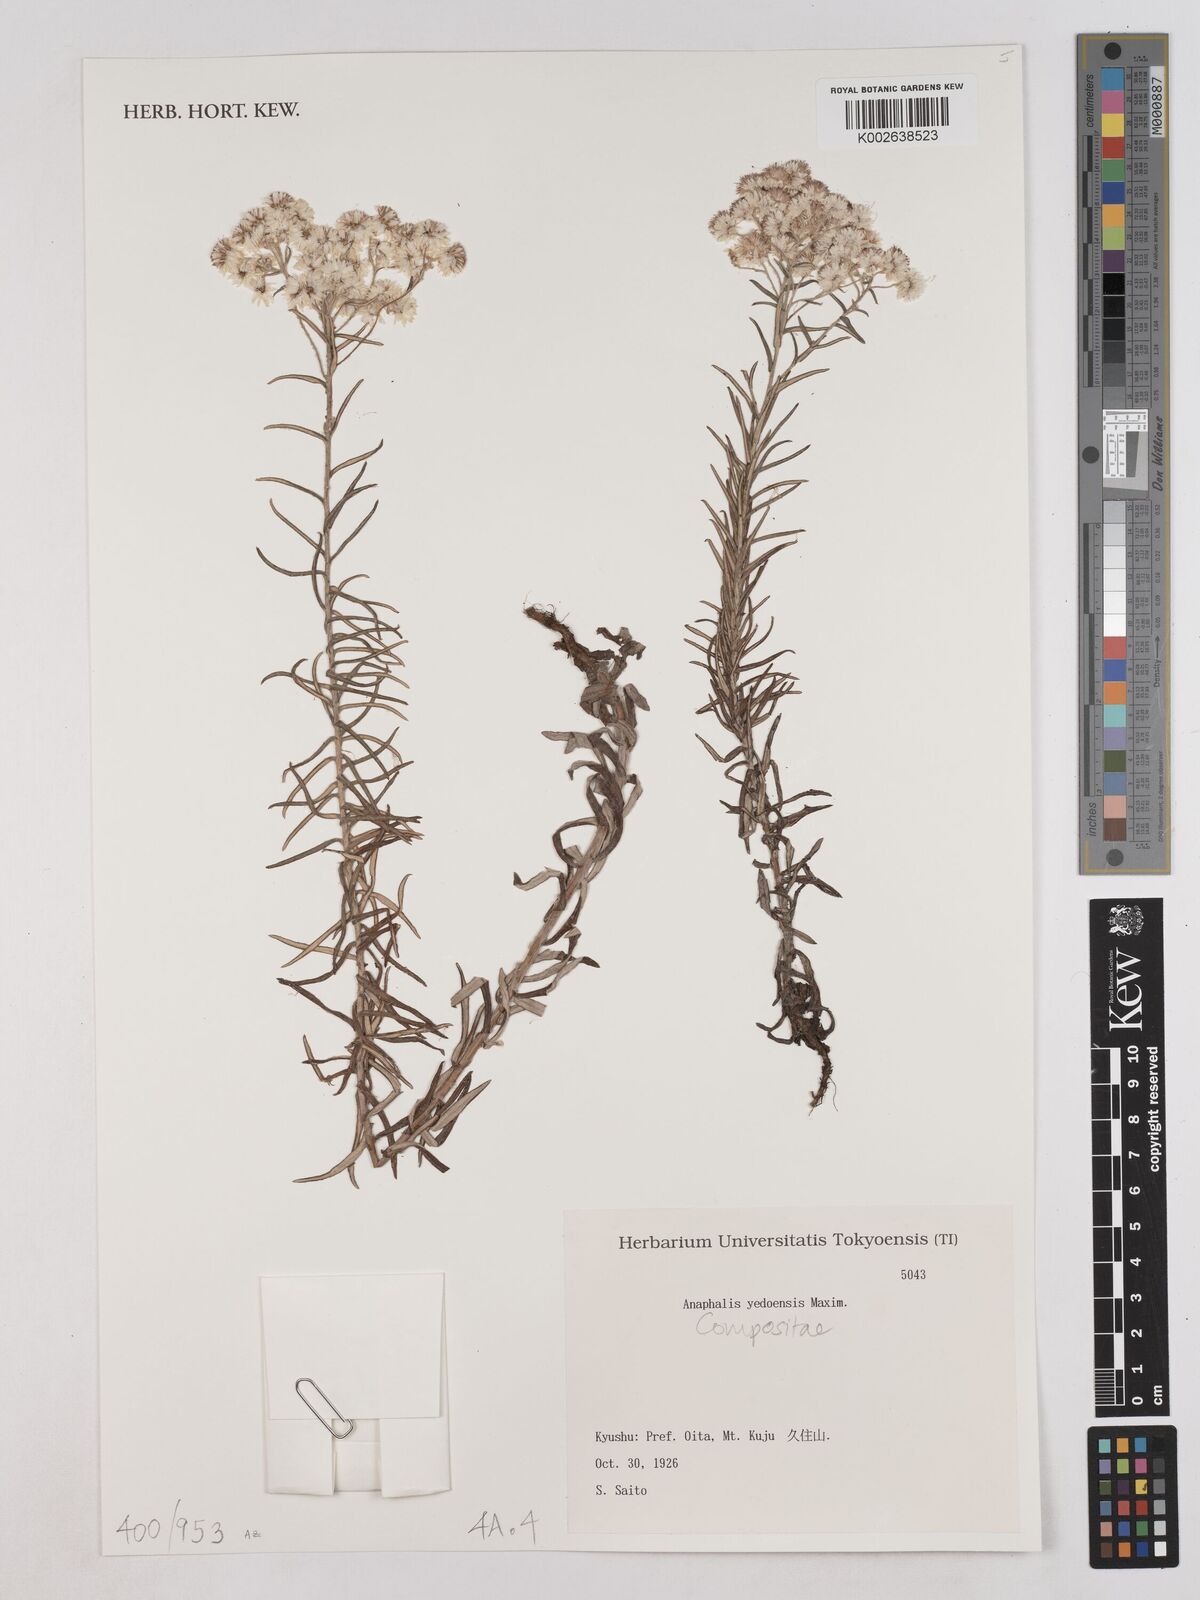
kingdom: Plantae
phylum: Tracheophyta
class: Magnoliopsida
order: Asterales
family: Asteraceae
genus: Anaphalis
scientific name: Anaphalis margaritacea
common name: Pearly everlasting
